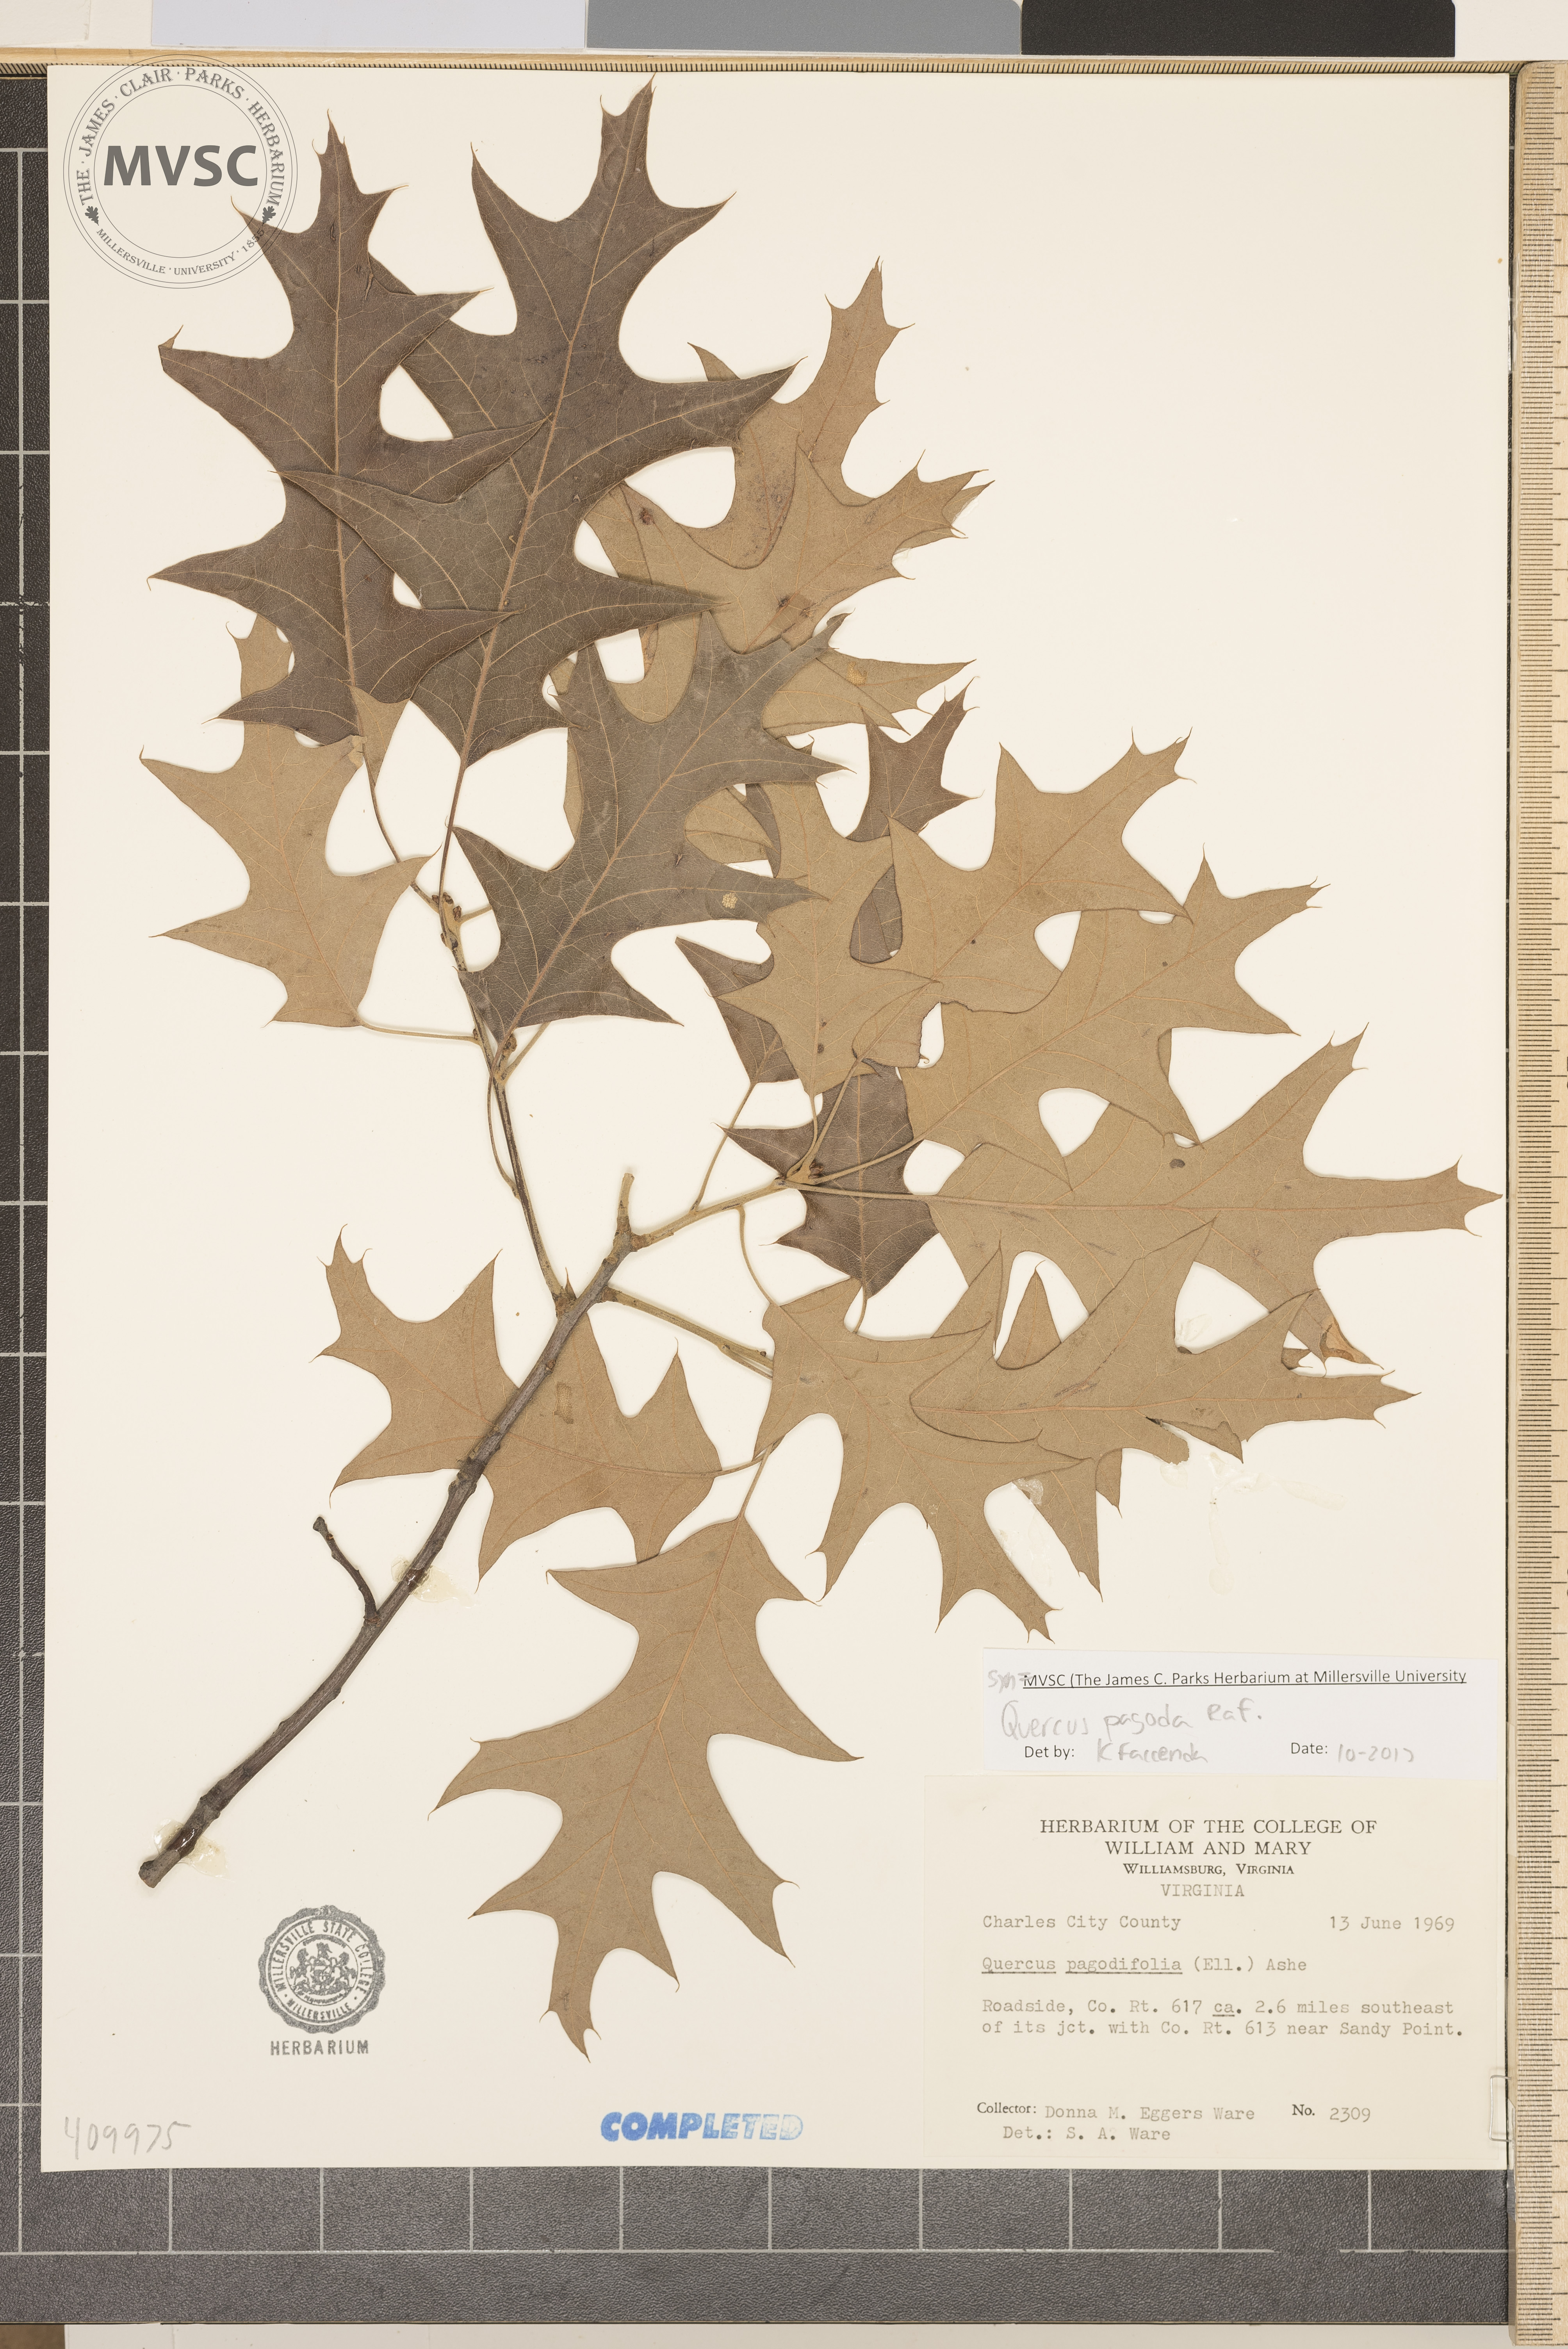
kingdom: Plantae
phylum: Tracheophyta
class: Magnoliopsida
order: Fagales
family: Fagaceae
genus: Quercus
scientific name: Quercus pagoda
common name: Cherrybark Oak
